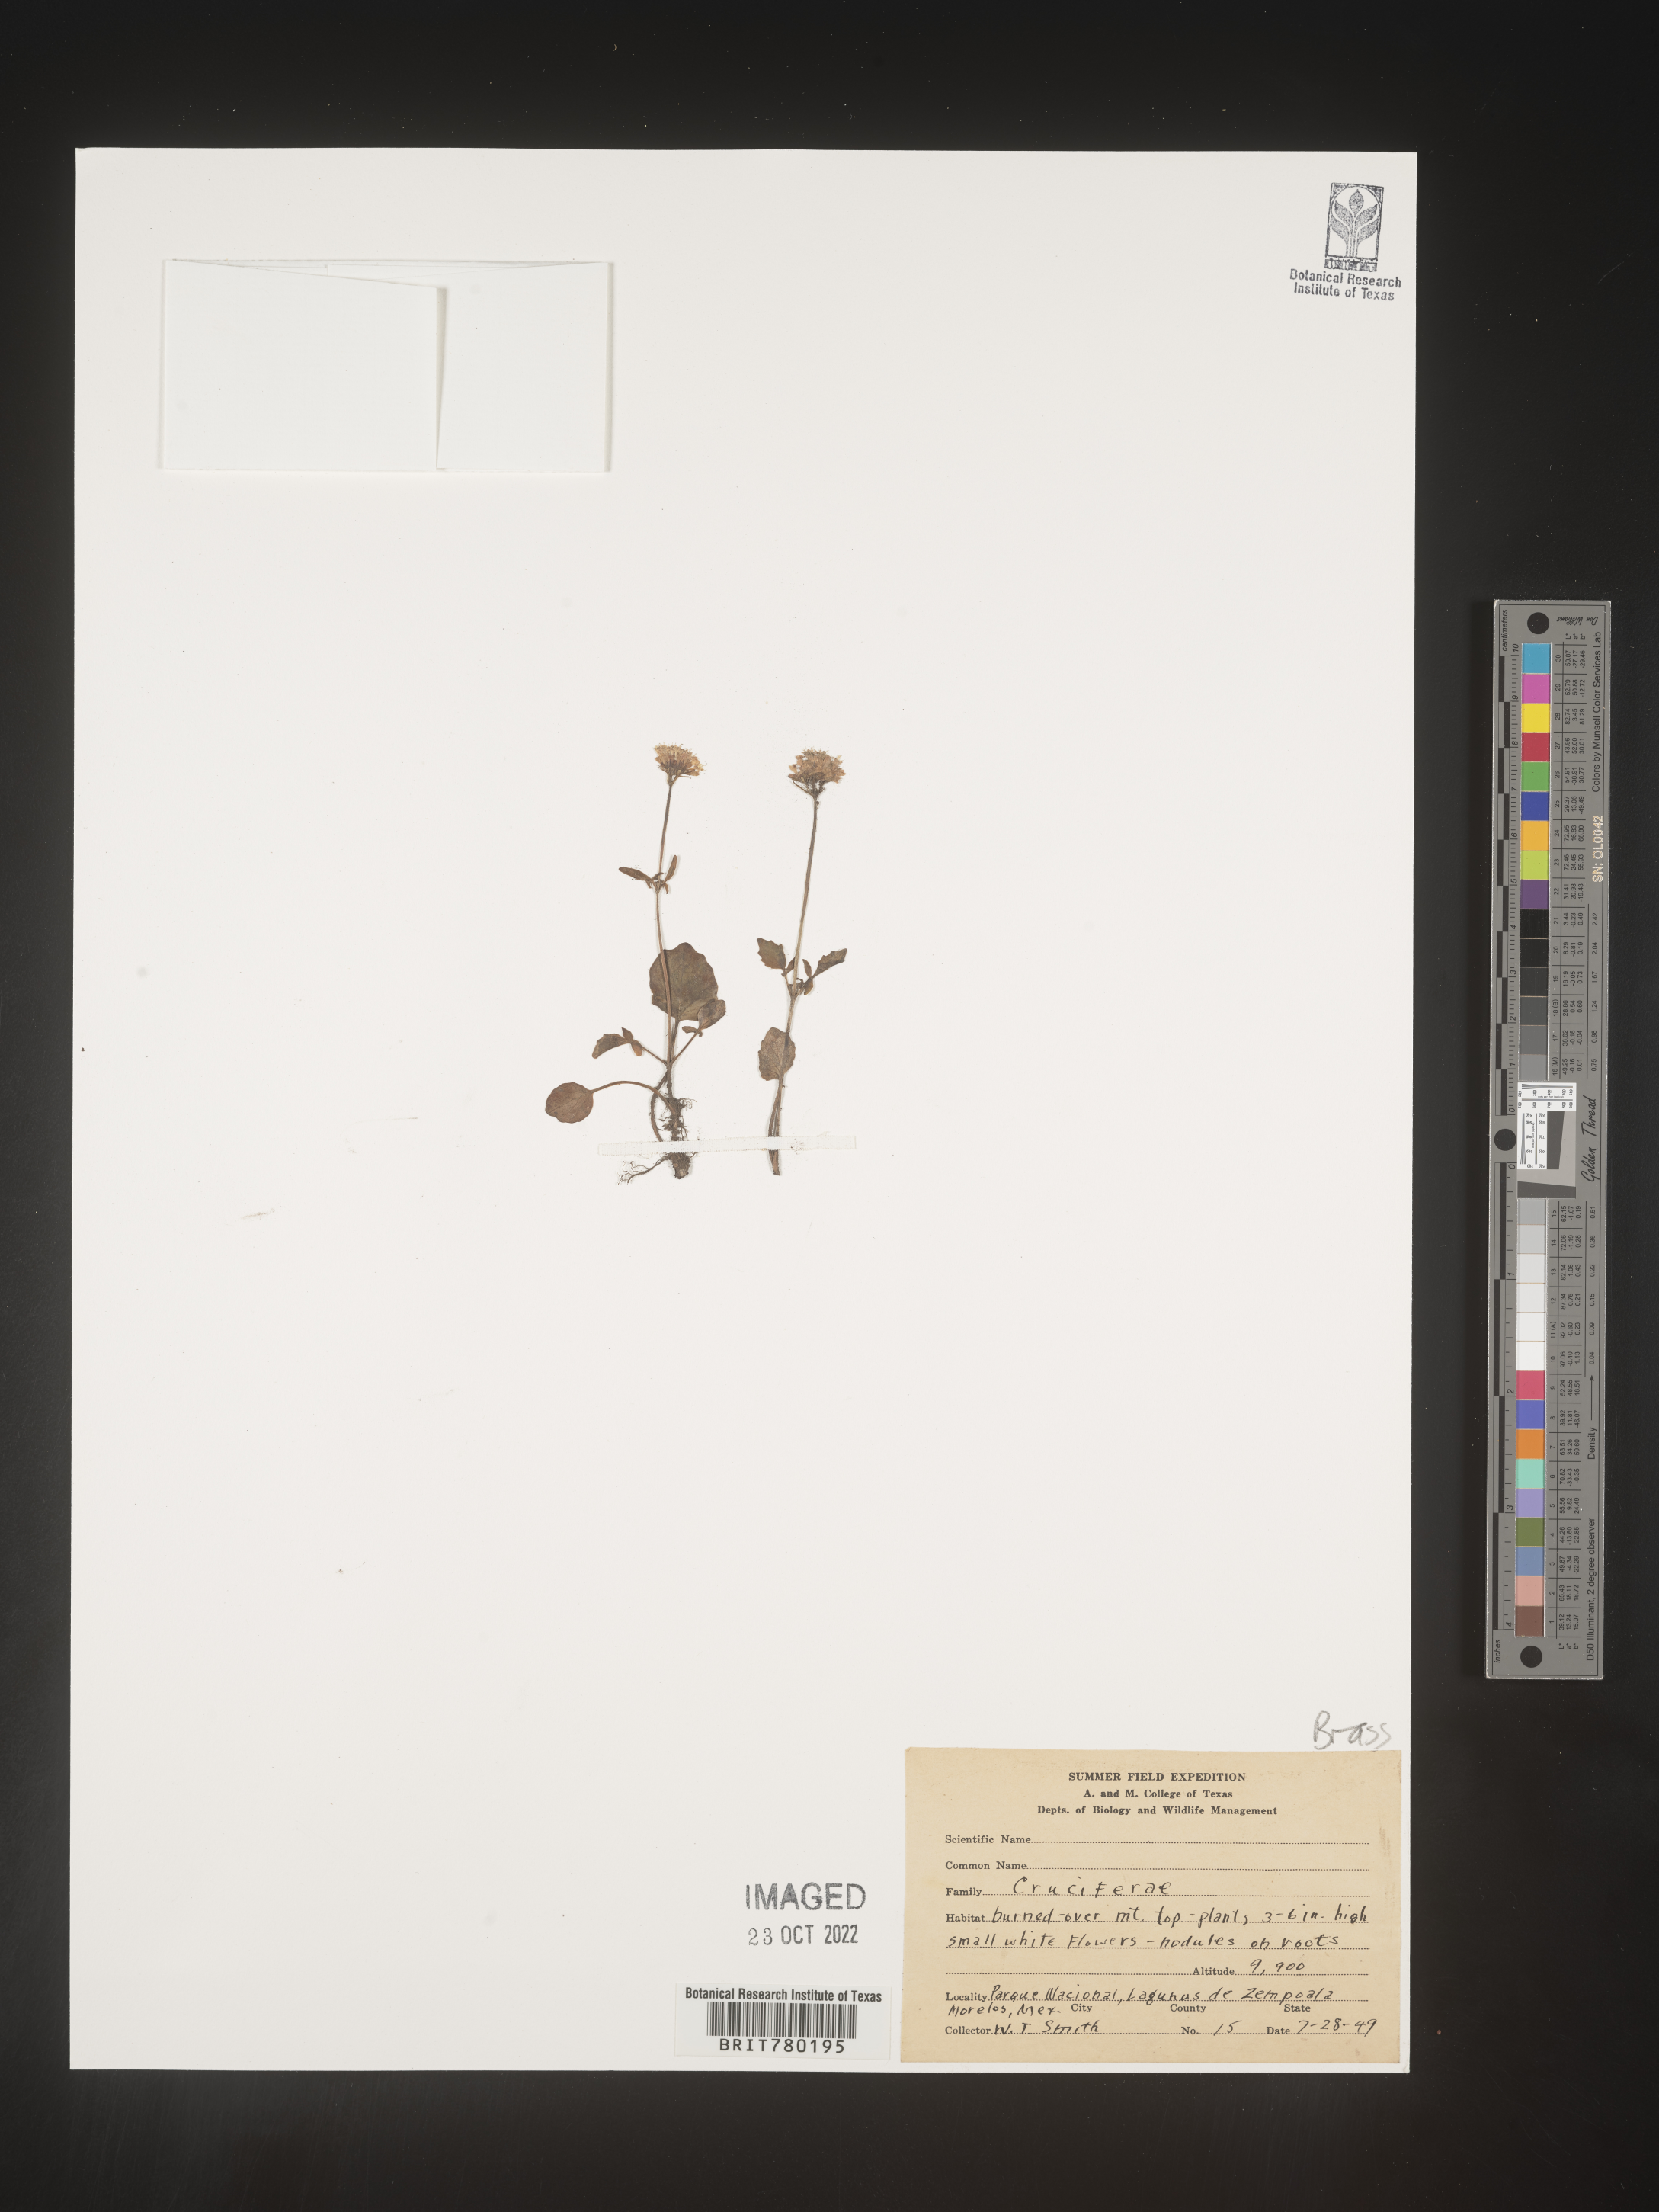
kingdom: Plantae
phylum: Tracheophyta
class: Magnoliopsida
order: Brassicales
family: Brassicaceae
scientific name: Brassicaceae
